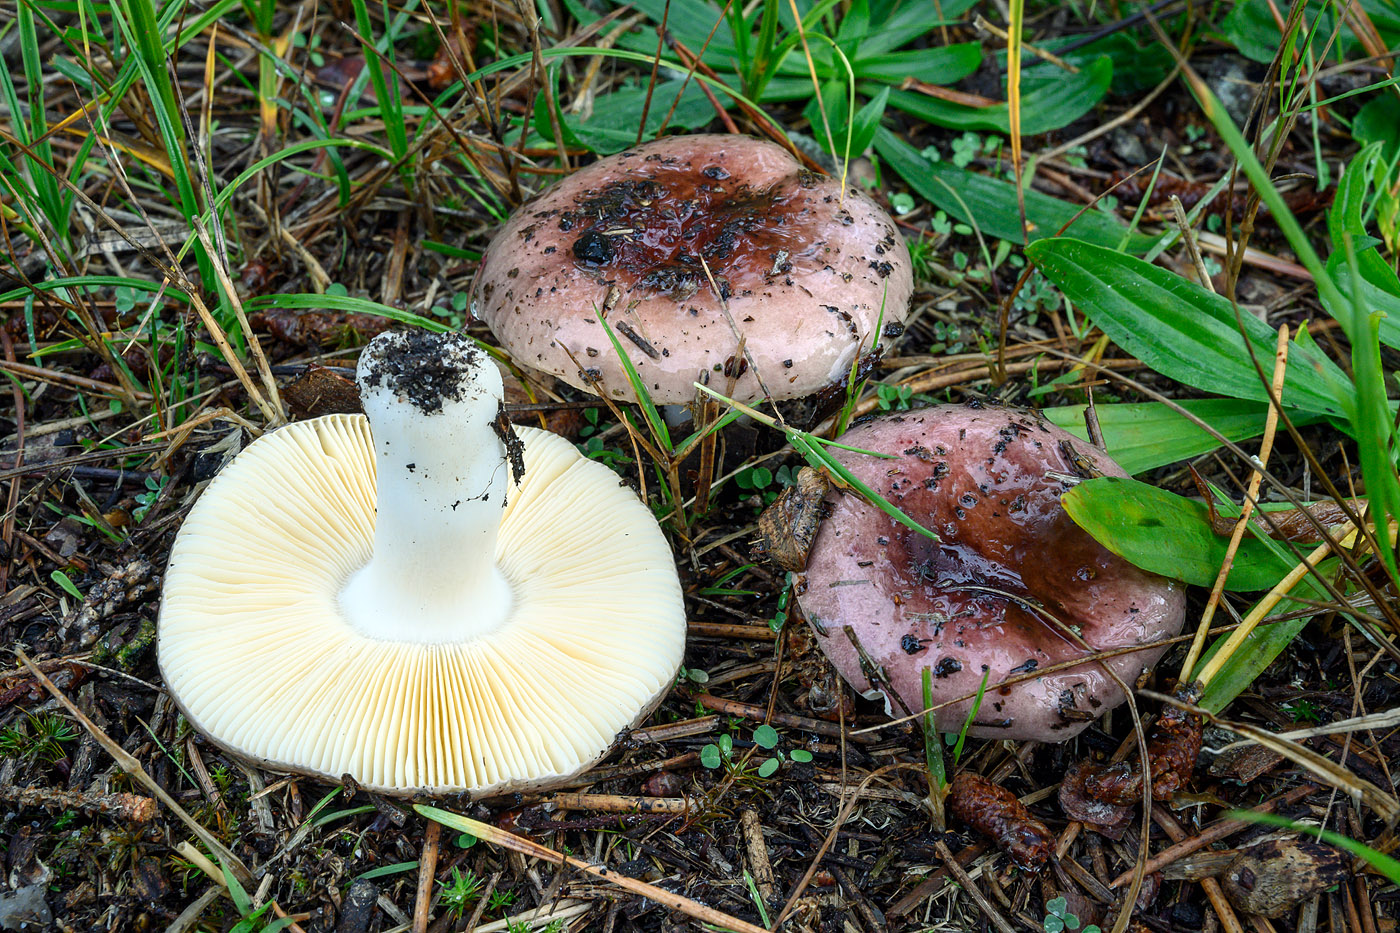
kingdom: Fungi
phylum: Basidiomycota
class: Agaricomycetes
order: Russulales
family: Russulaceae
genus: Russula
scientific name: Russula cessans
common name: fyrre-skørhat
